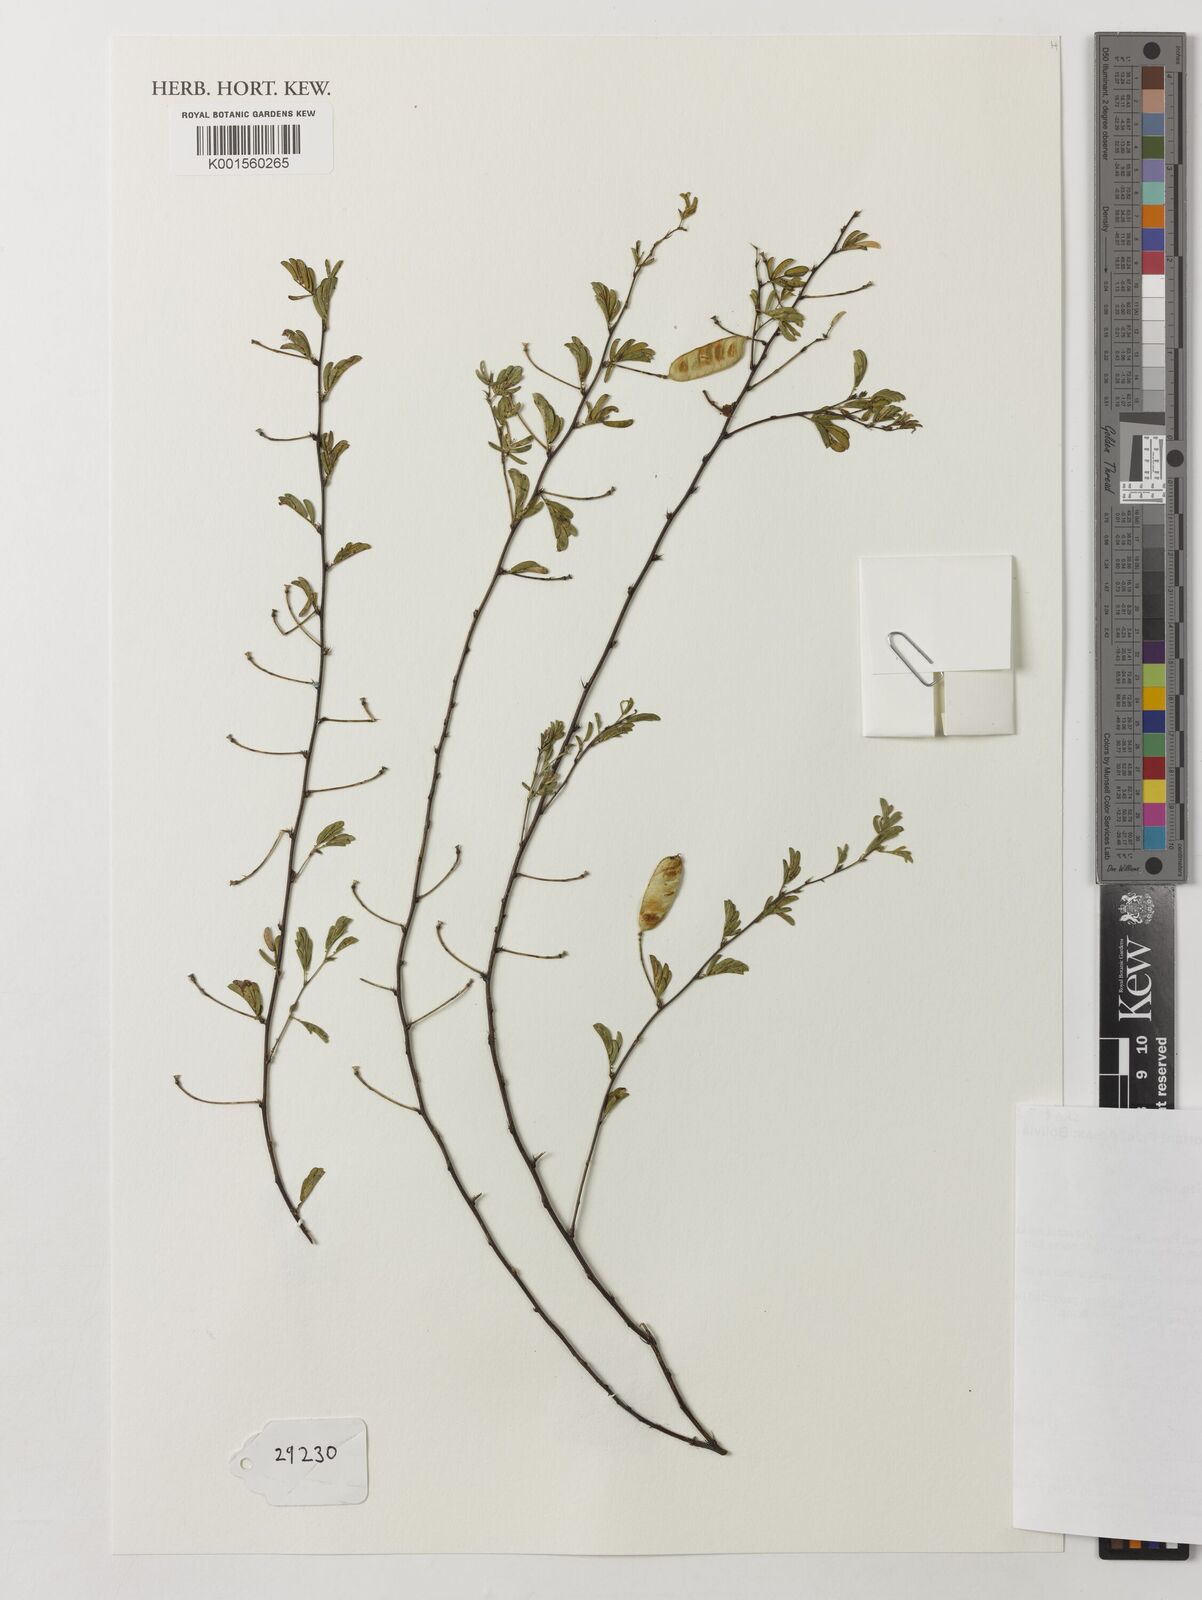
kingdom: Plantae
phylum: Tracheophyta
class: Magnoliopsida
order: Fabales
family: Fabaceae
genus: Chamaecrista
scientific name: Chamaecrista chiquitana
